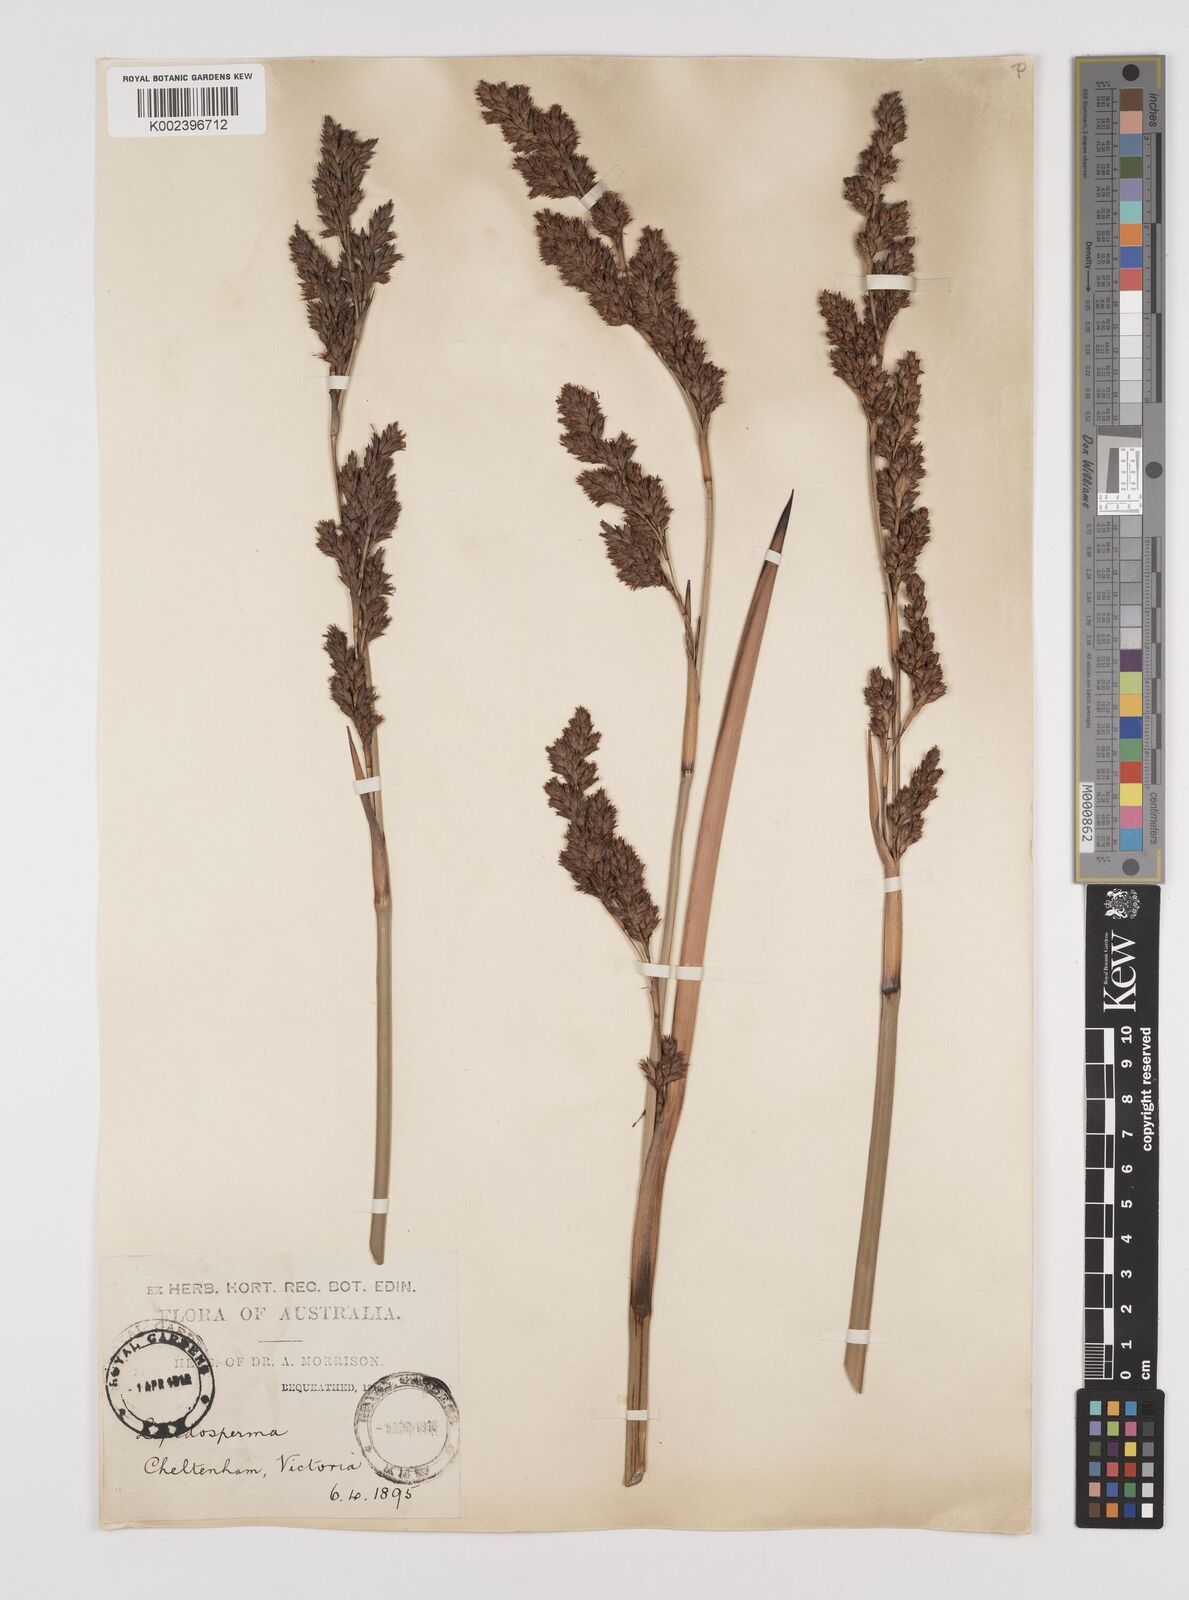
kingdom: Plantae
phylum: Tracheophyta
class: Liliopsida
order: Poales
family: Cyperaceae
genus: Lepidosperma
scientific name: Lepidosperma longitudinale
